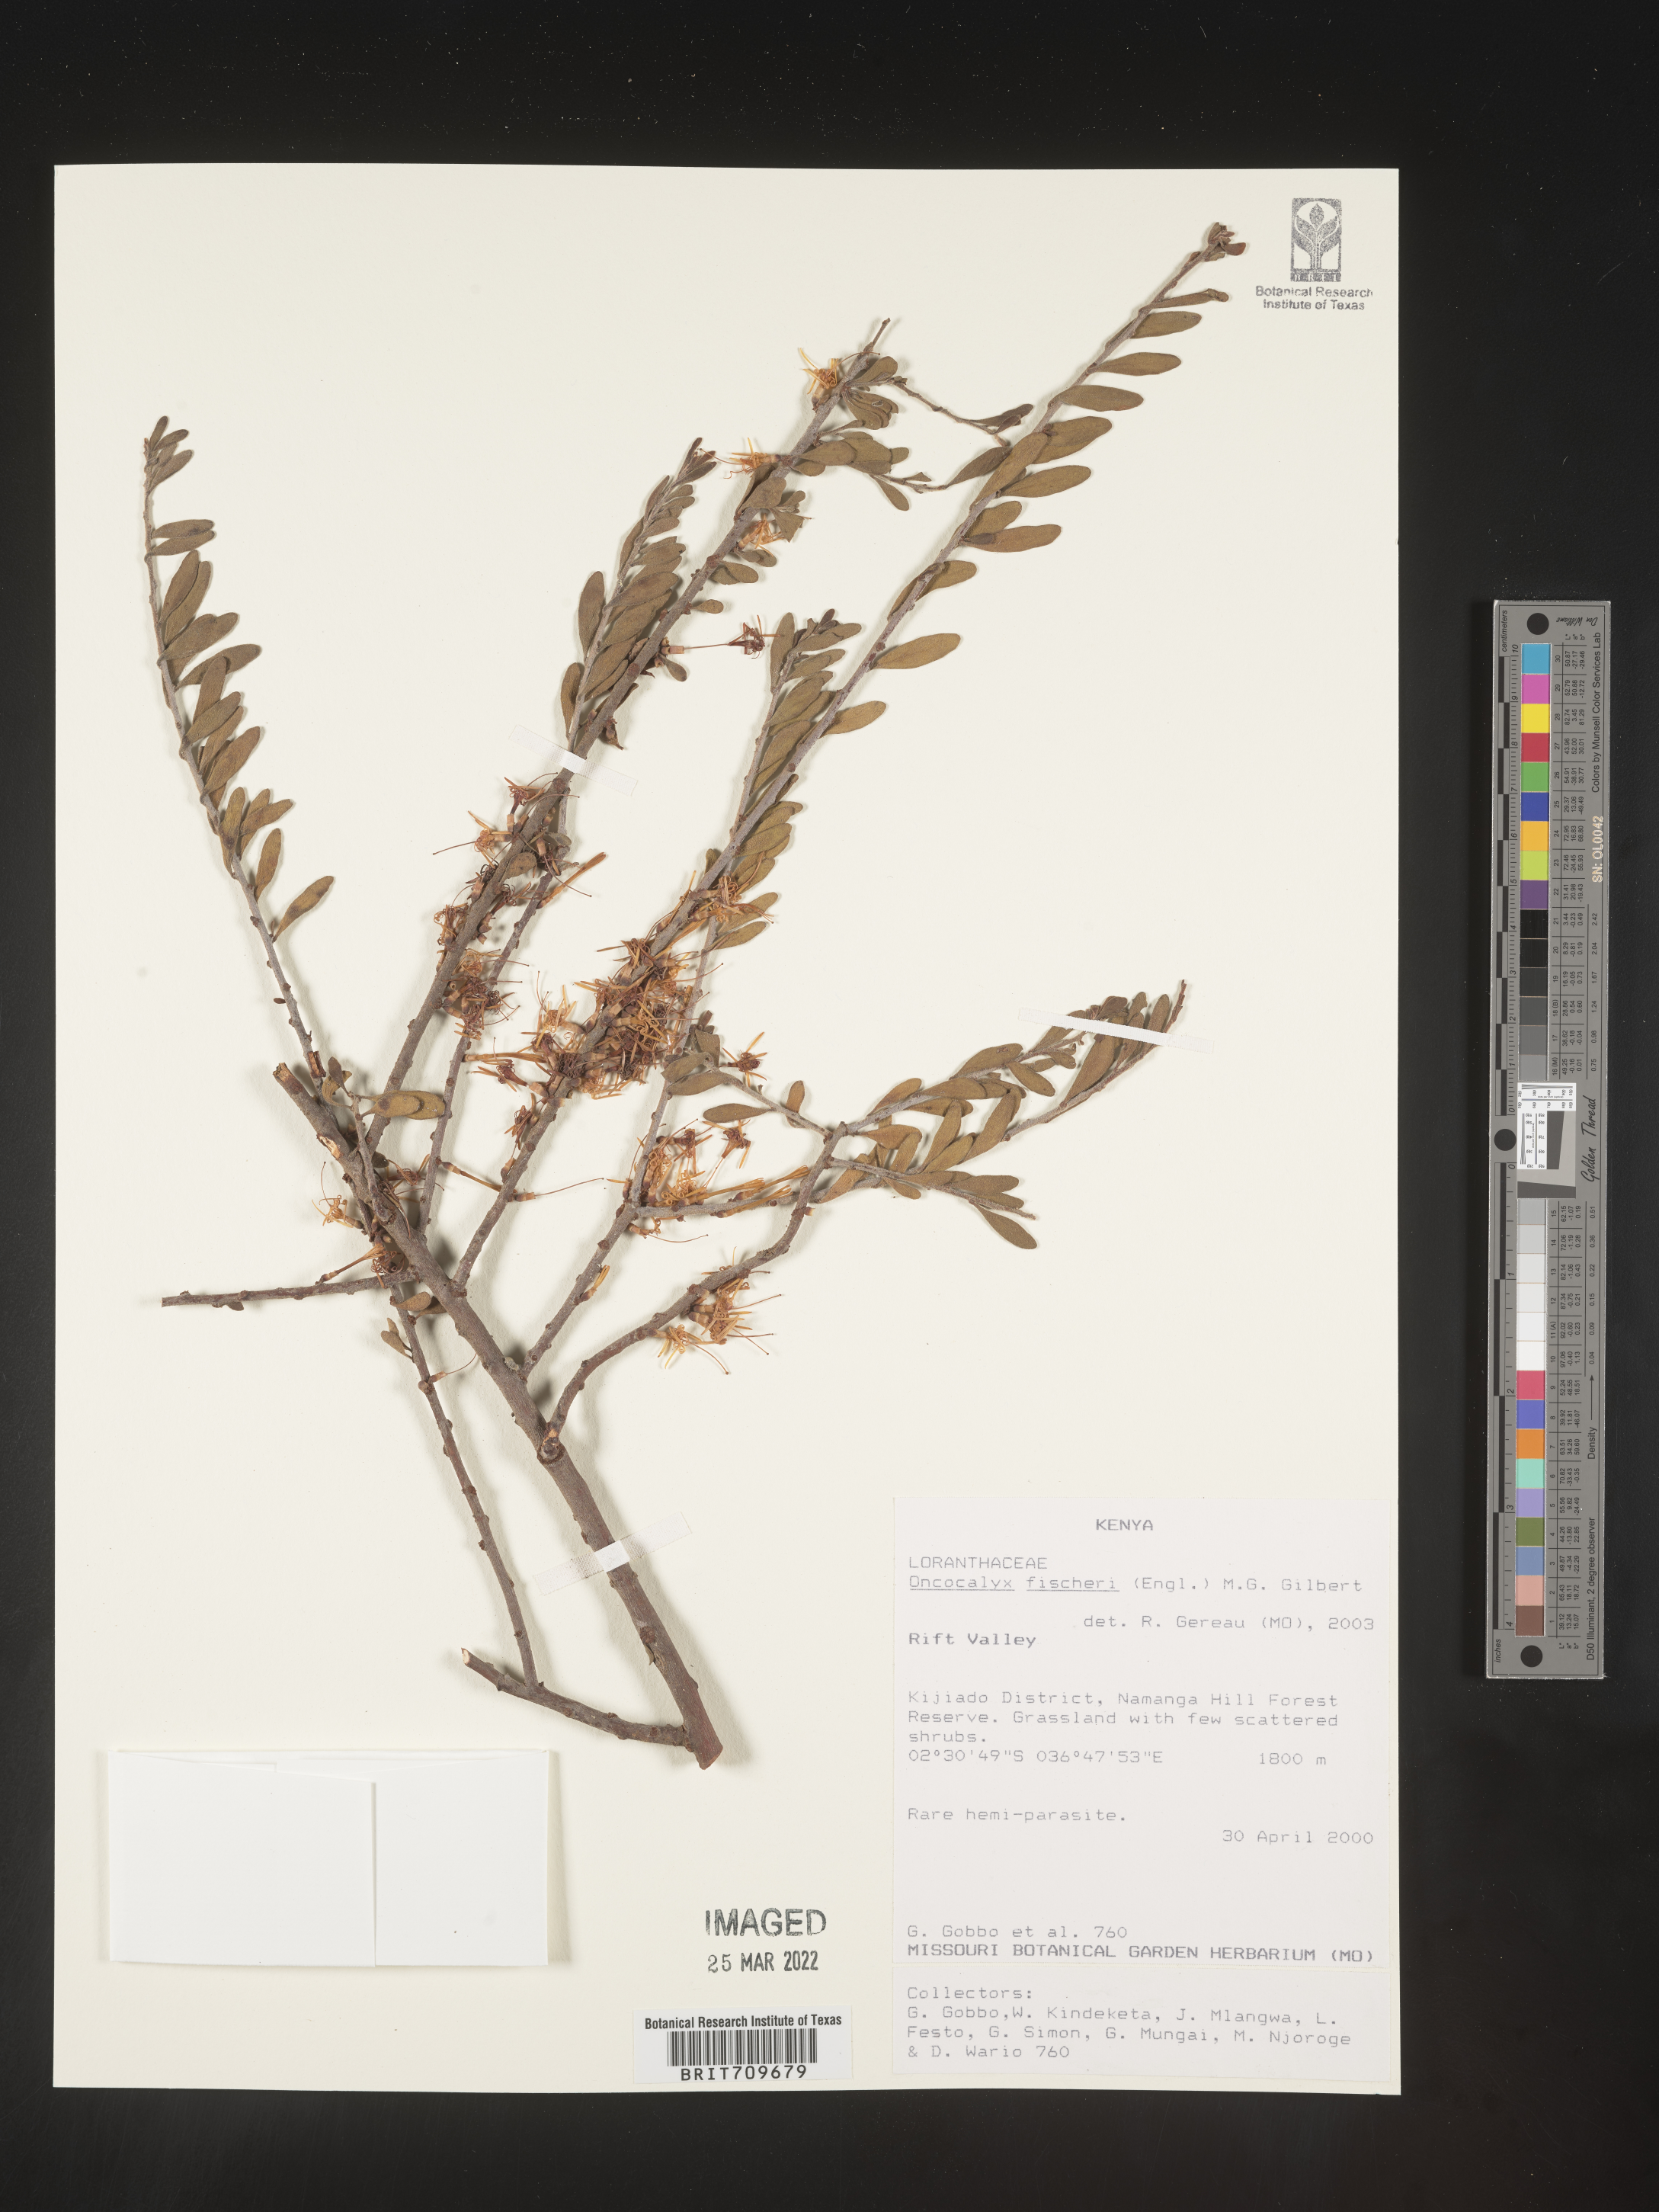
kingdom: Plantae
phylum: Tracheophyta
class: Magnoliopsida
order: Santalales
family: Loranthaceae
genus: Oncocalyx
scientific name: Oncocalyx
